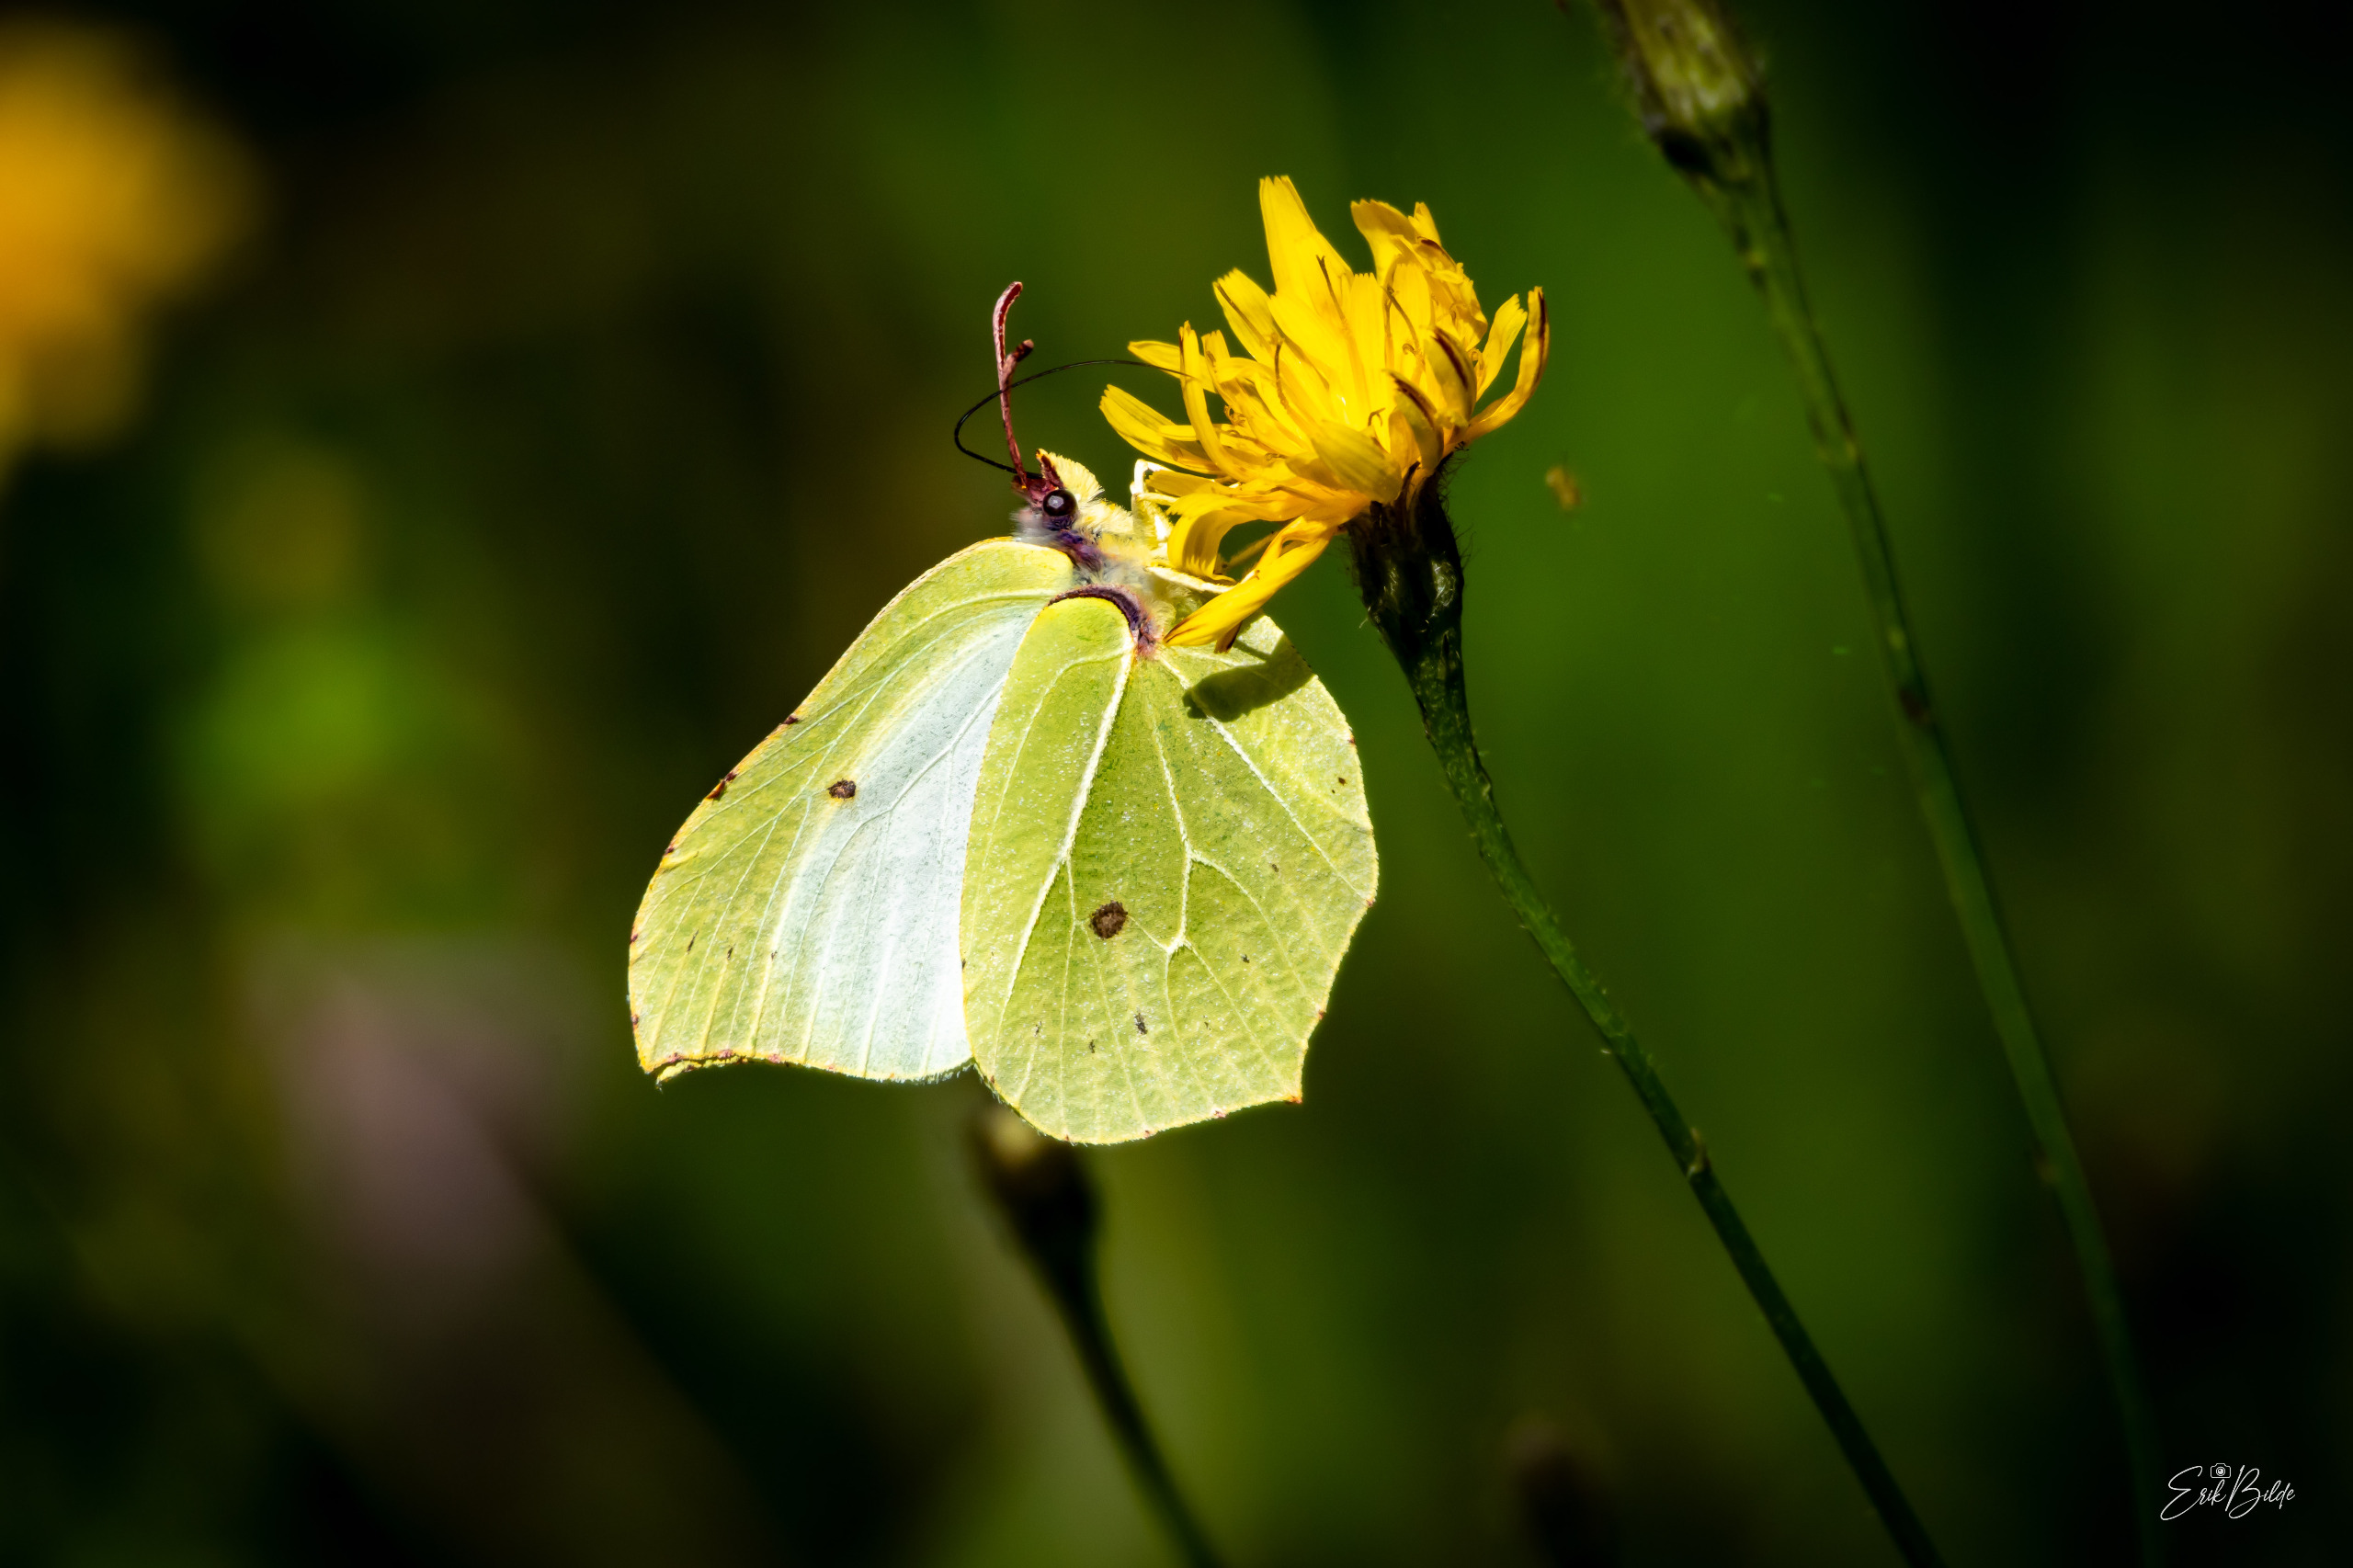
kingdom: Animalia
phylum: Arthropoda
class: Insecta
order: Lepidoptera
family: Pieridae
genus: Gonepteryx
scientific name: Gonepteryx rhamni
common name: Citronsommerfugl
